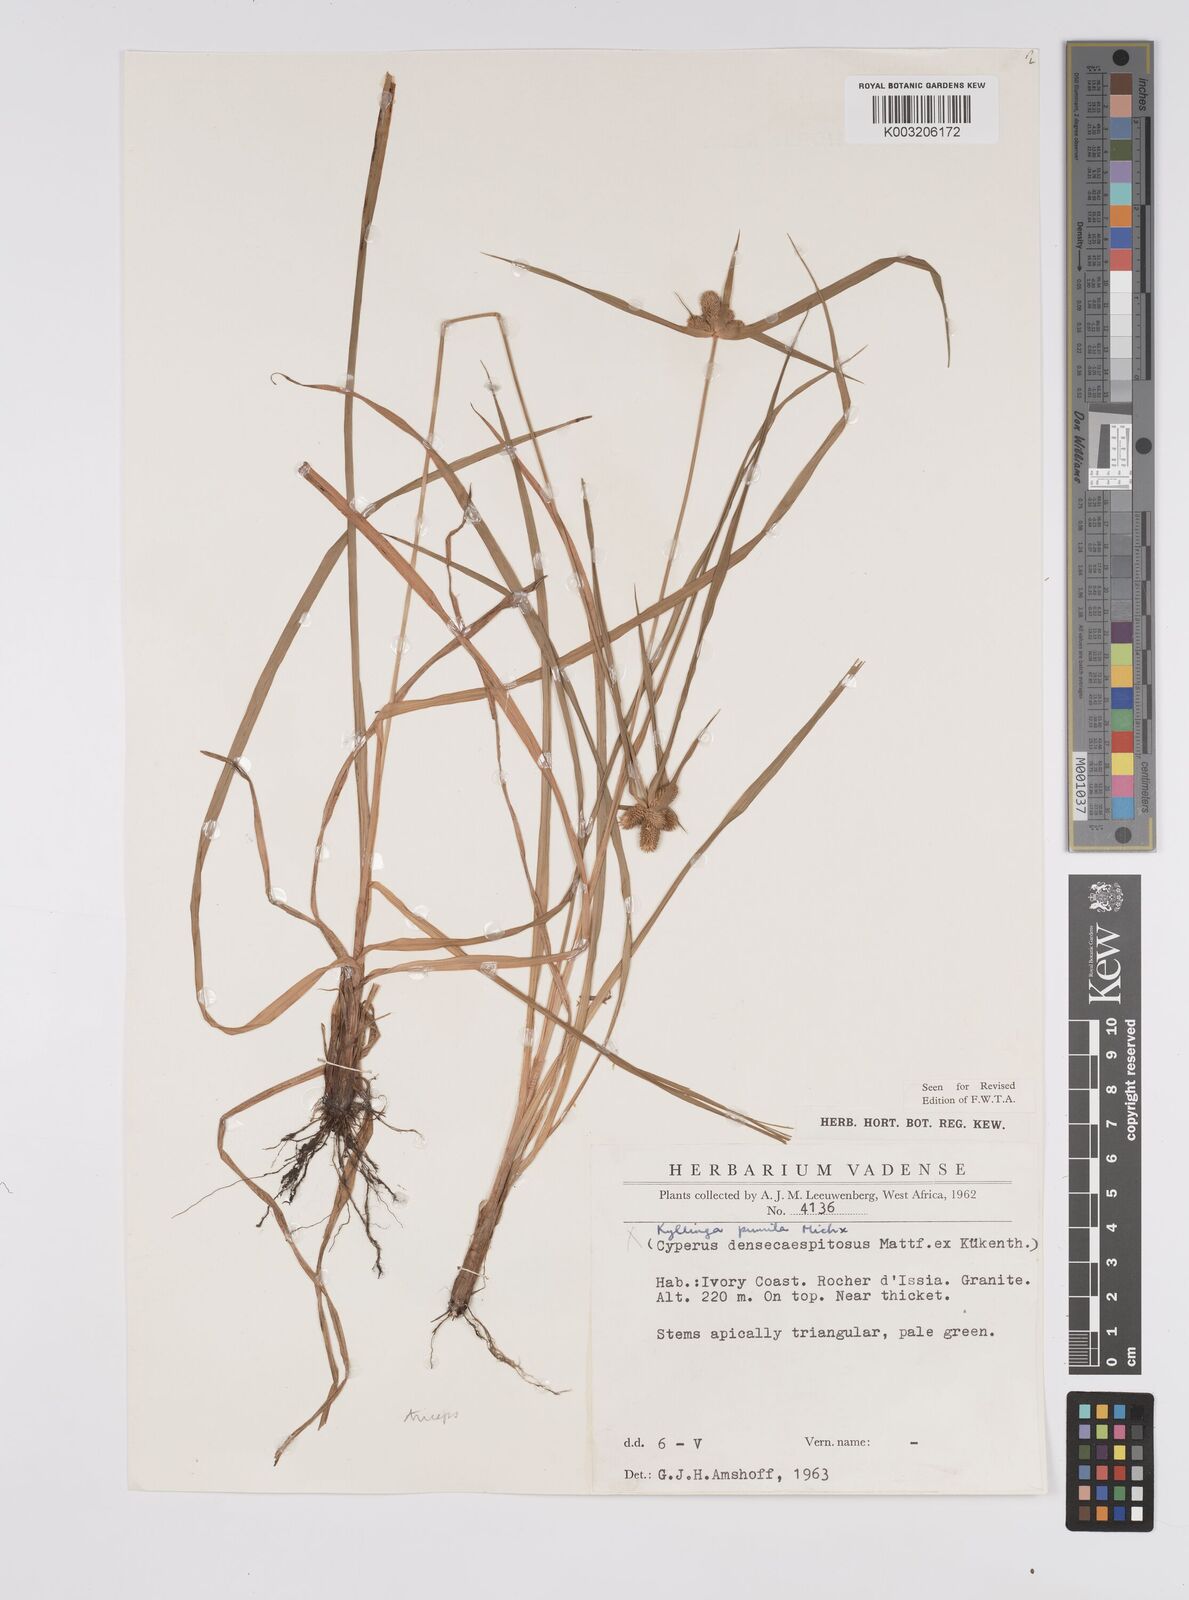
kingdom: Plantae
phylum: Tracheophyta
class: Liliopsida
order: Poales
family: Cyperaceae
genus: Cyperus
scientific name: Cyperus
